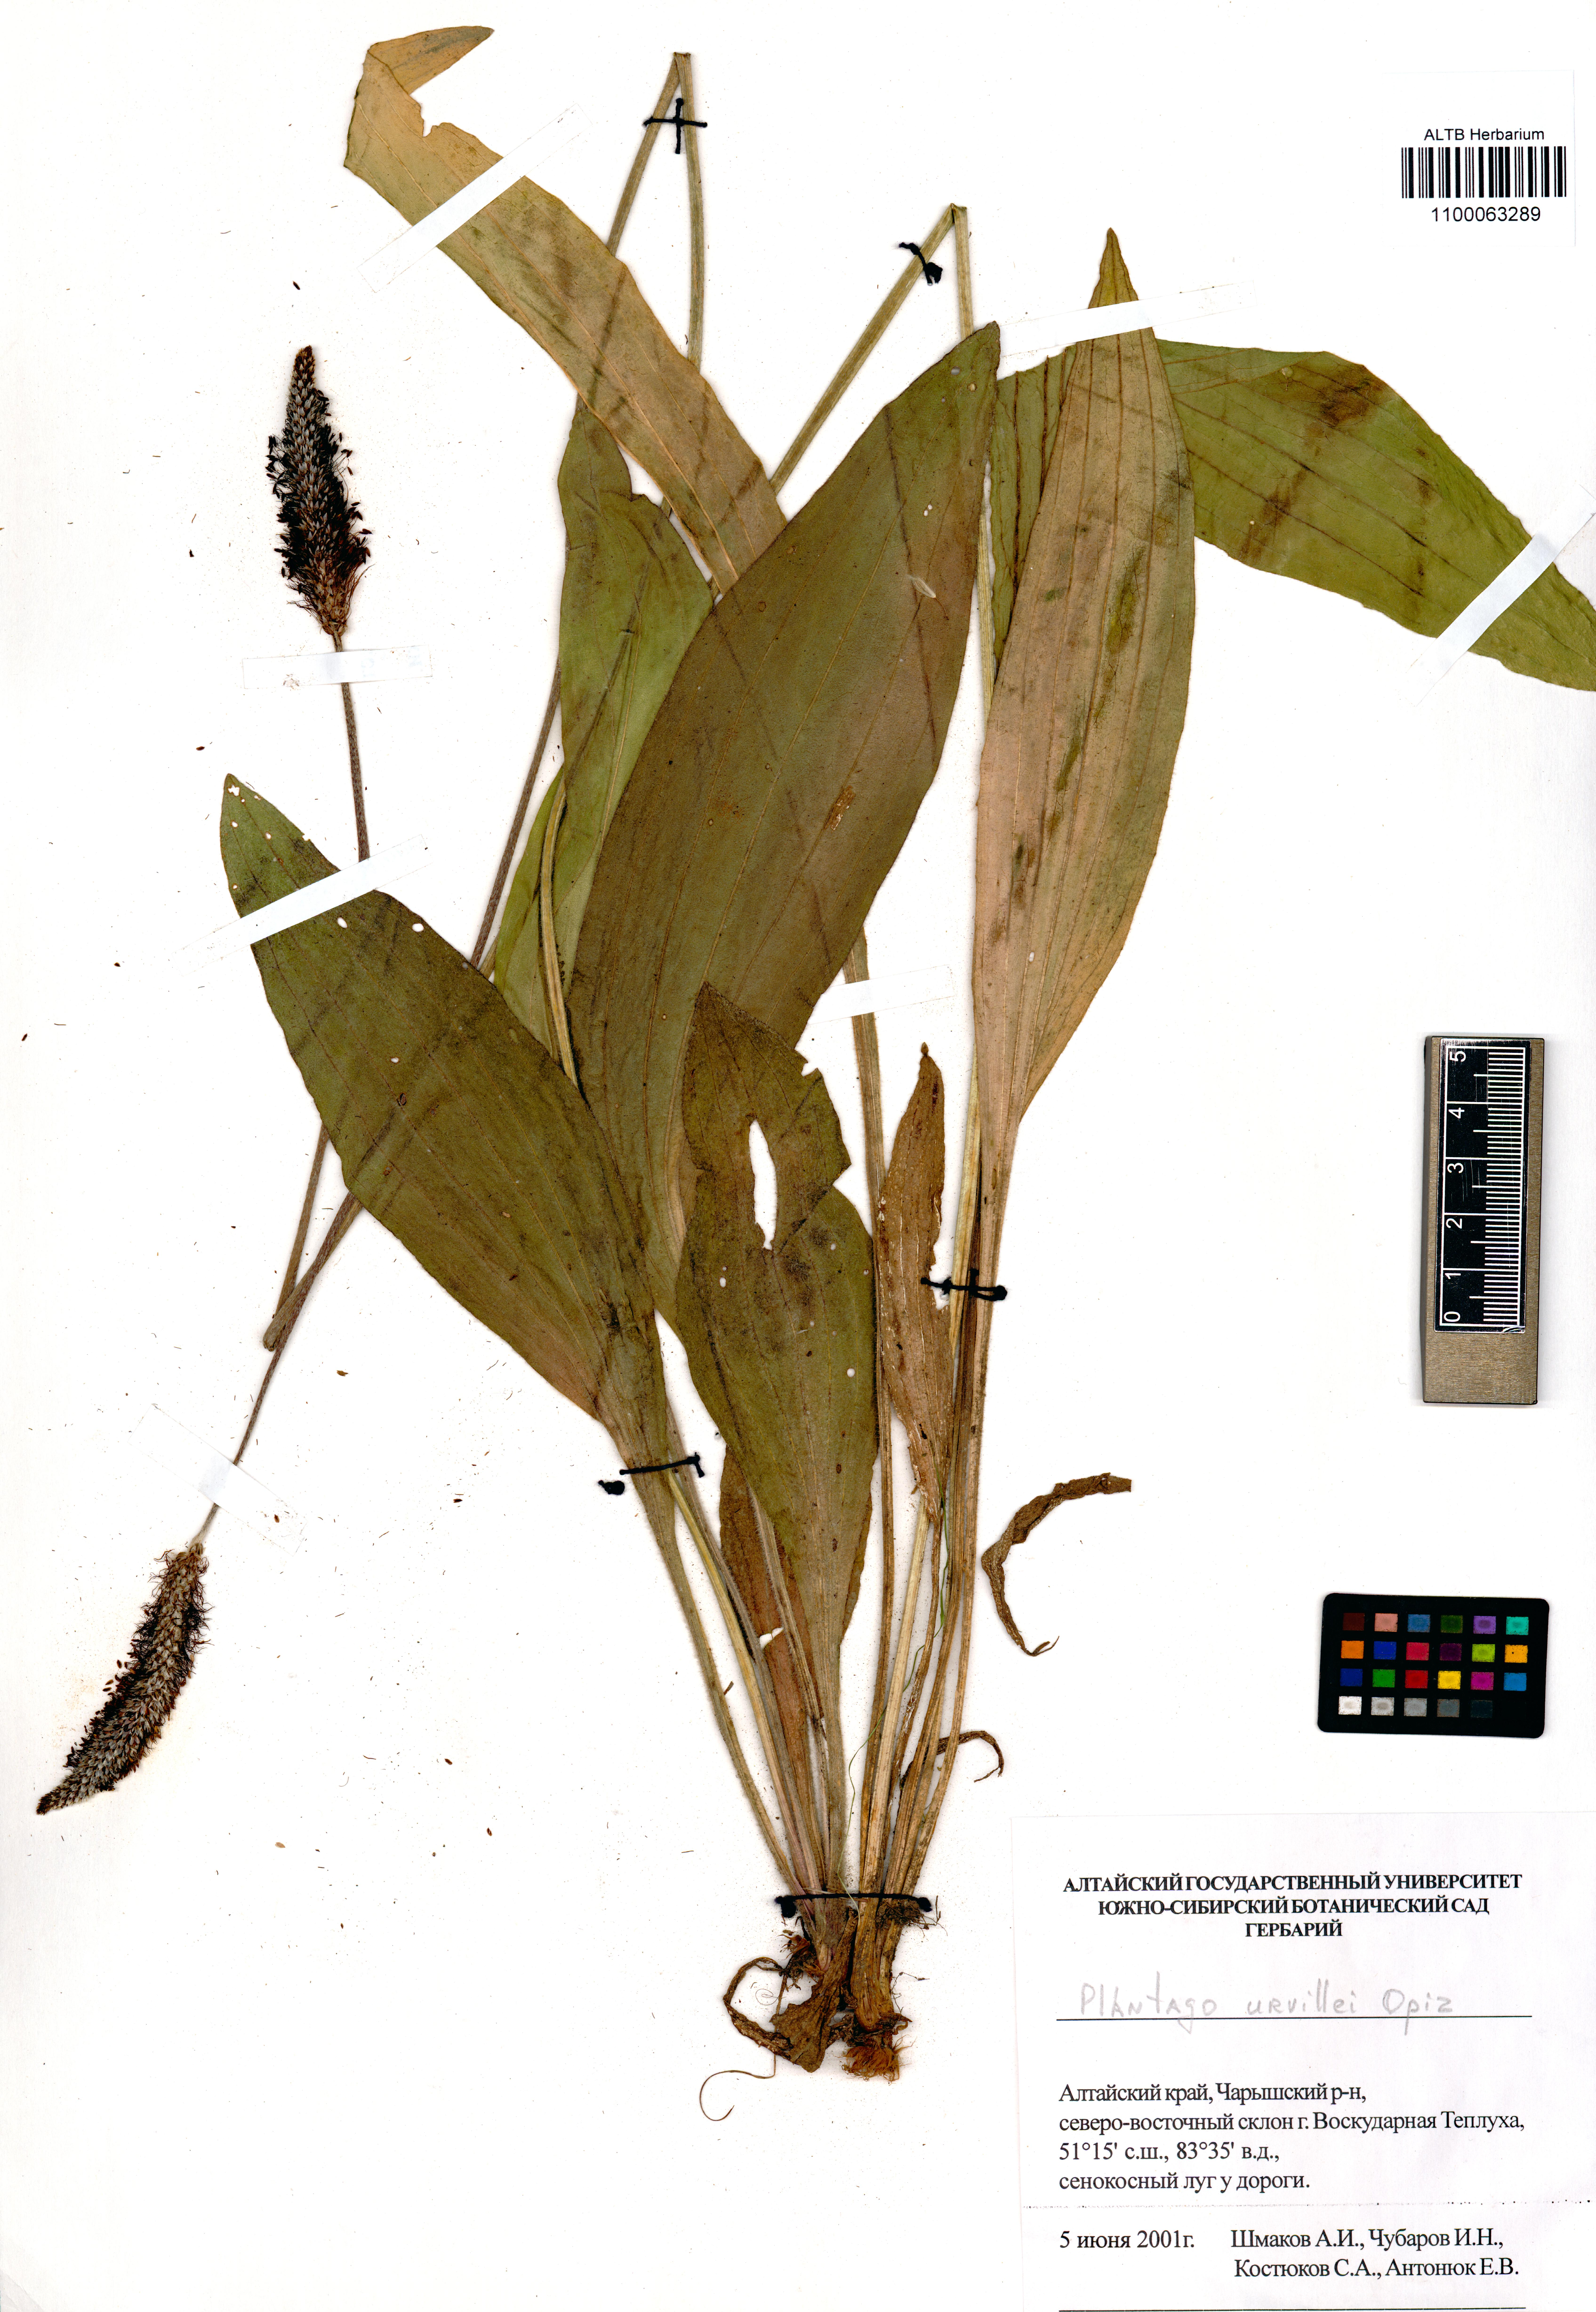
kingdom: Plantae
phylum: Tracheophyta
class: Magnoliopsida
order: Lamiales
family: Plantaginaceae
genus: Plantago
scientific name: Plantago urvillei
